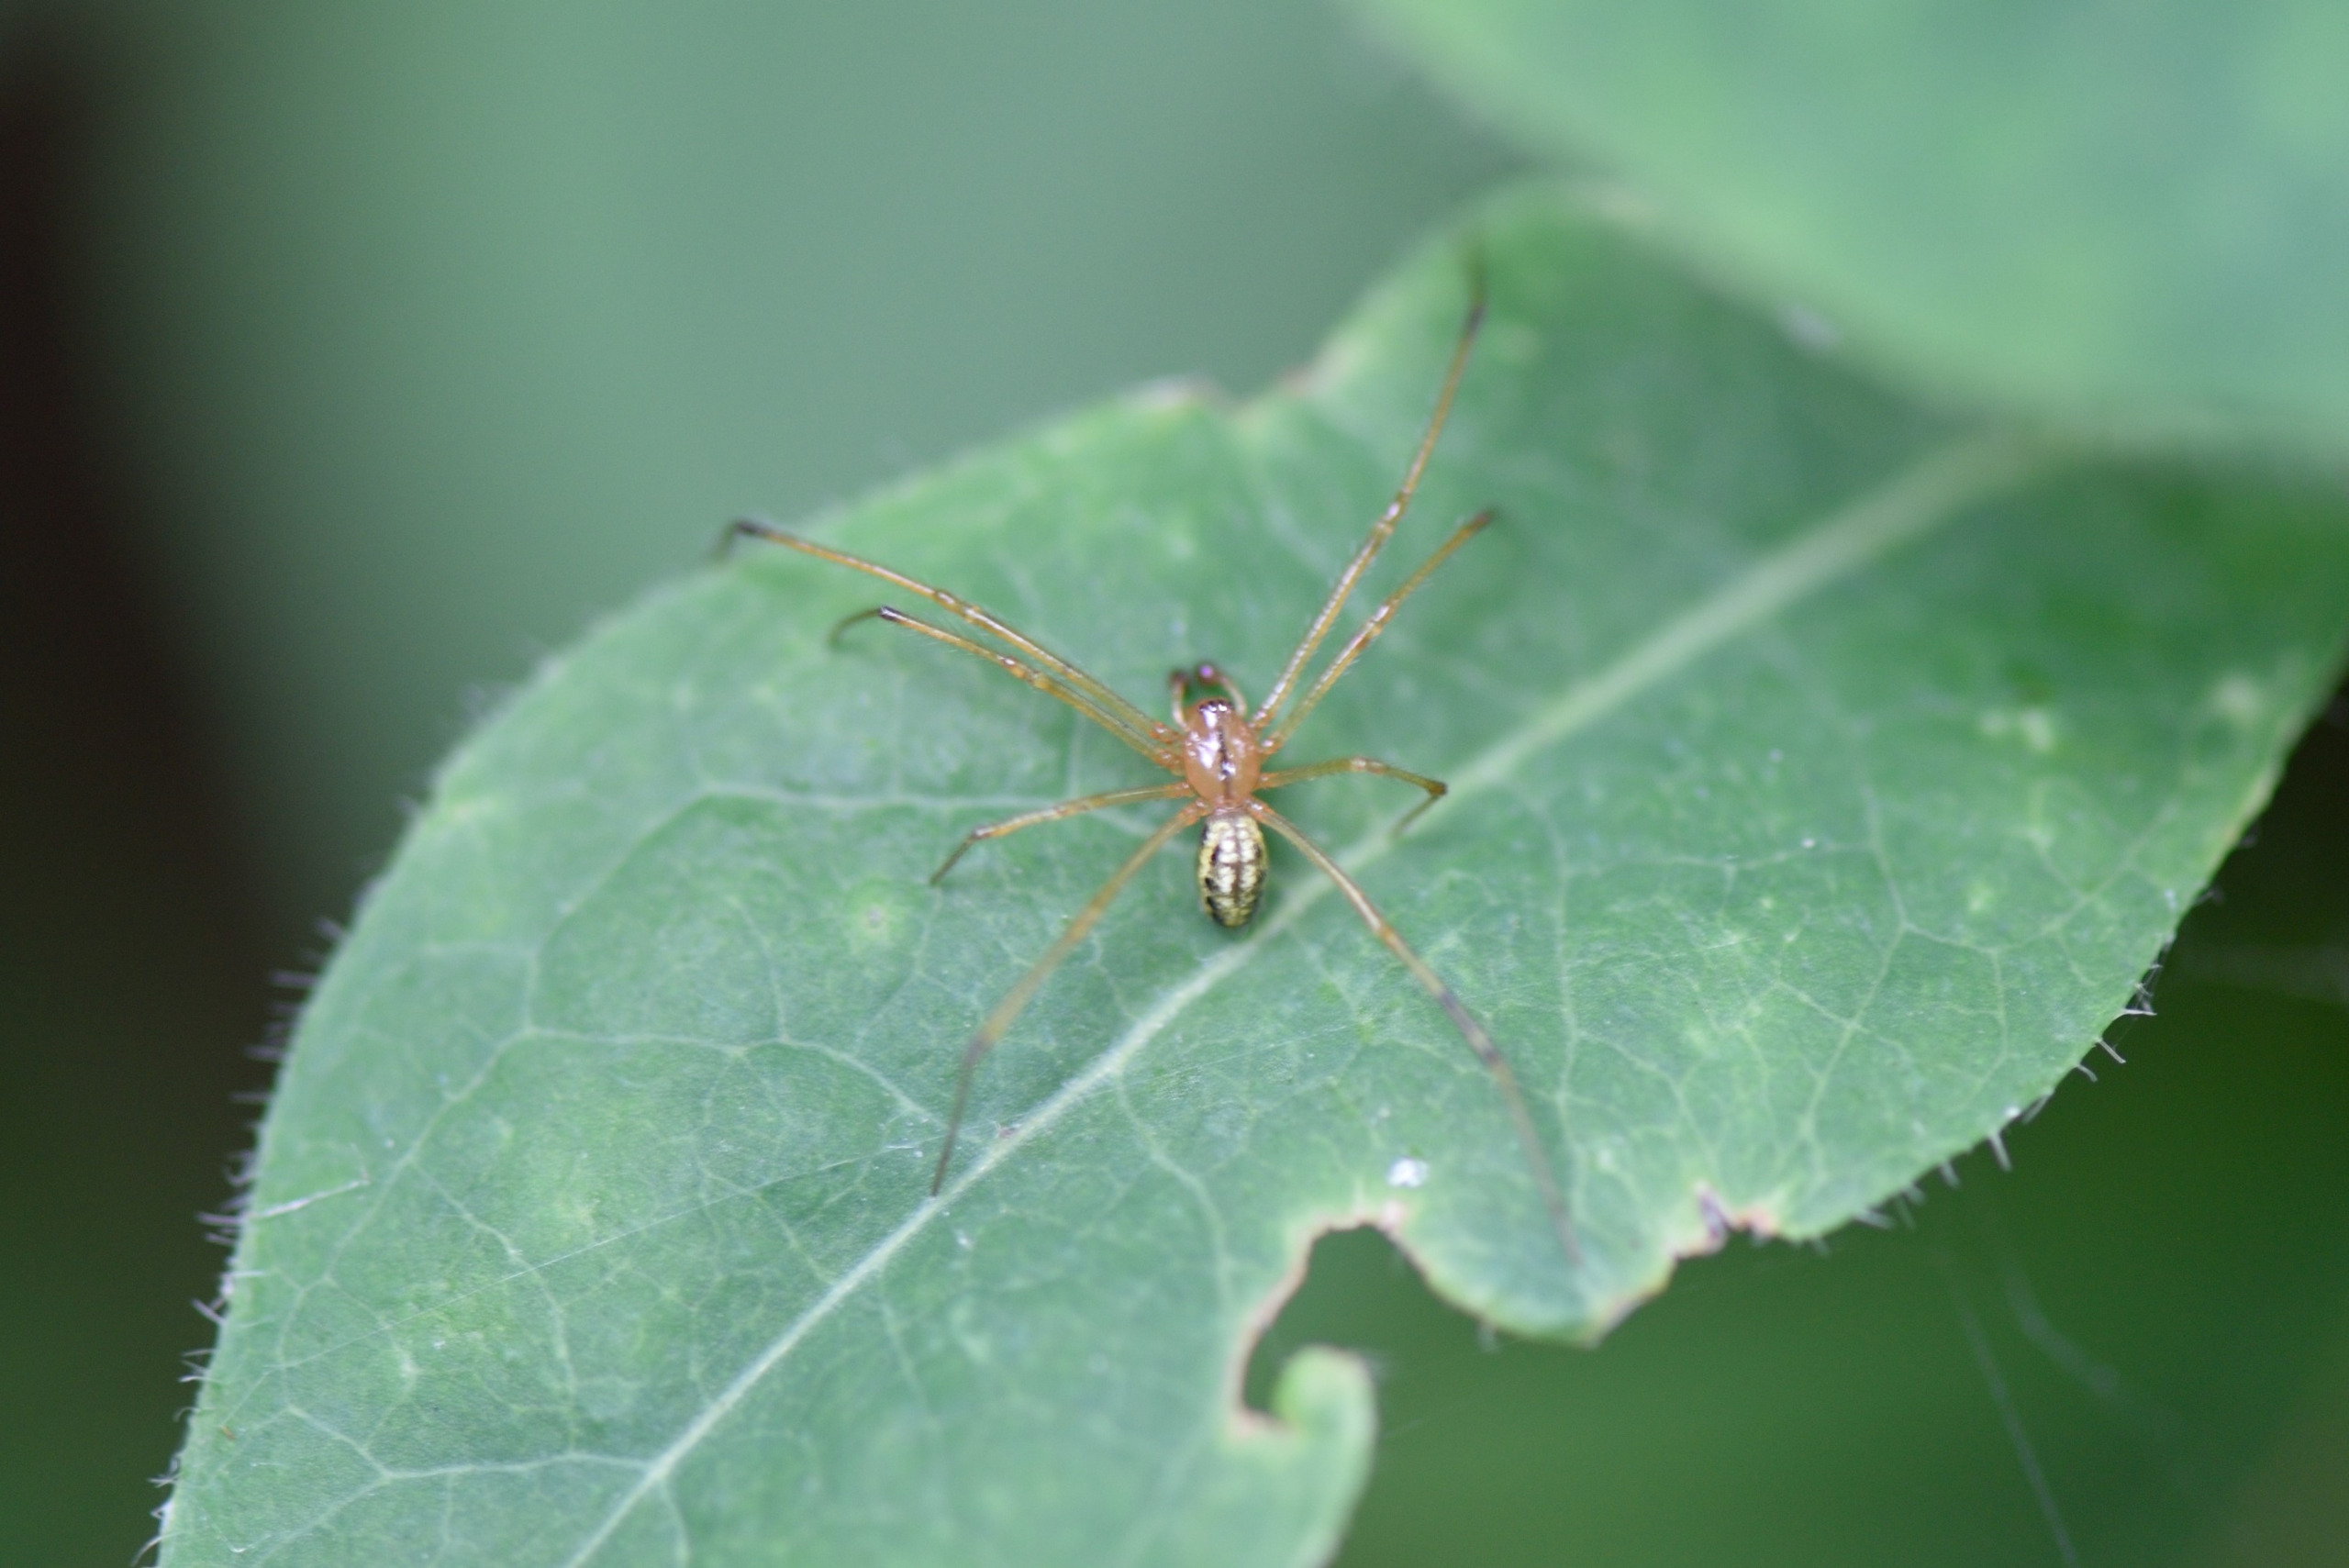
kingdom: Animalia
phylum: Arthropoda
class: Arachnida
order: Araneae
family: Theridiidae
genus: Enoplognatha
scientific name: Enoplognatha
